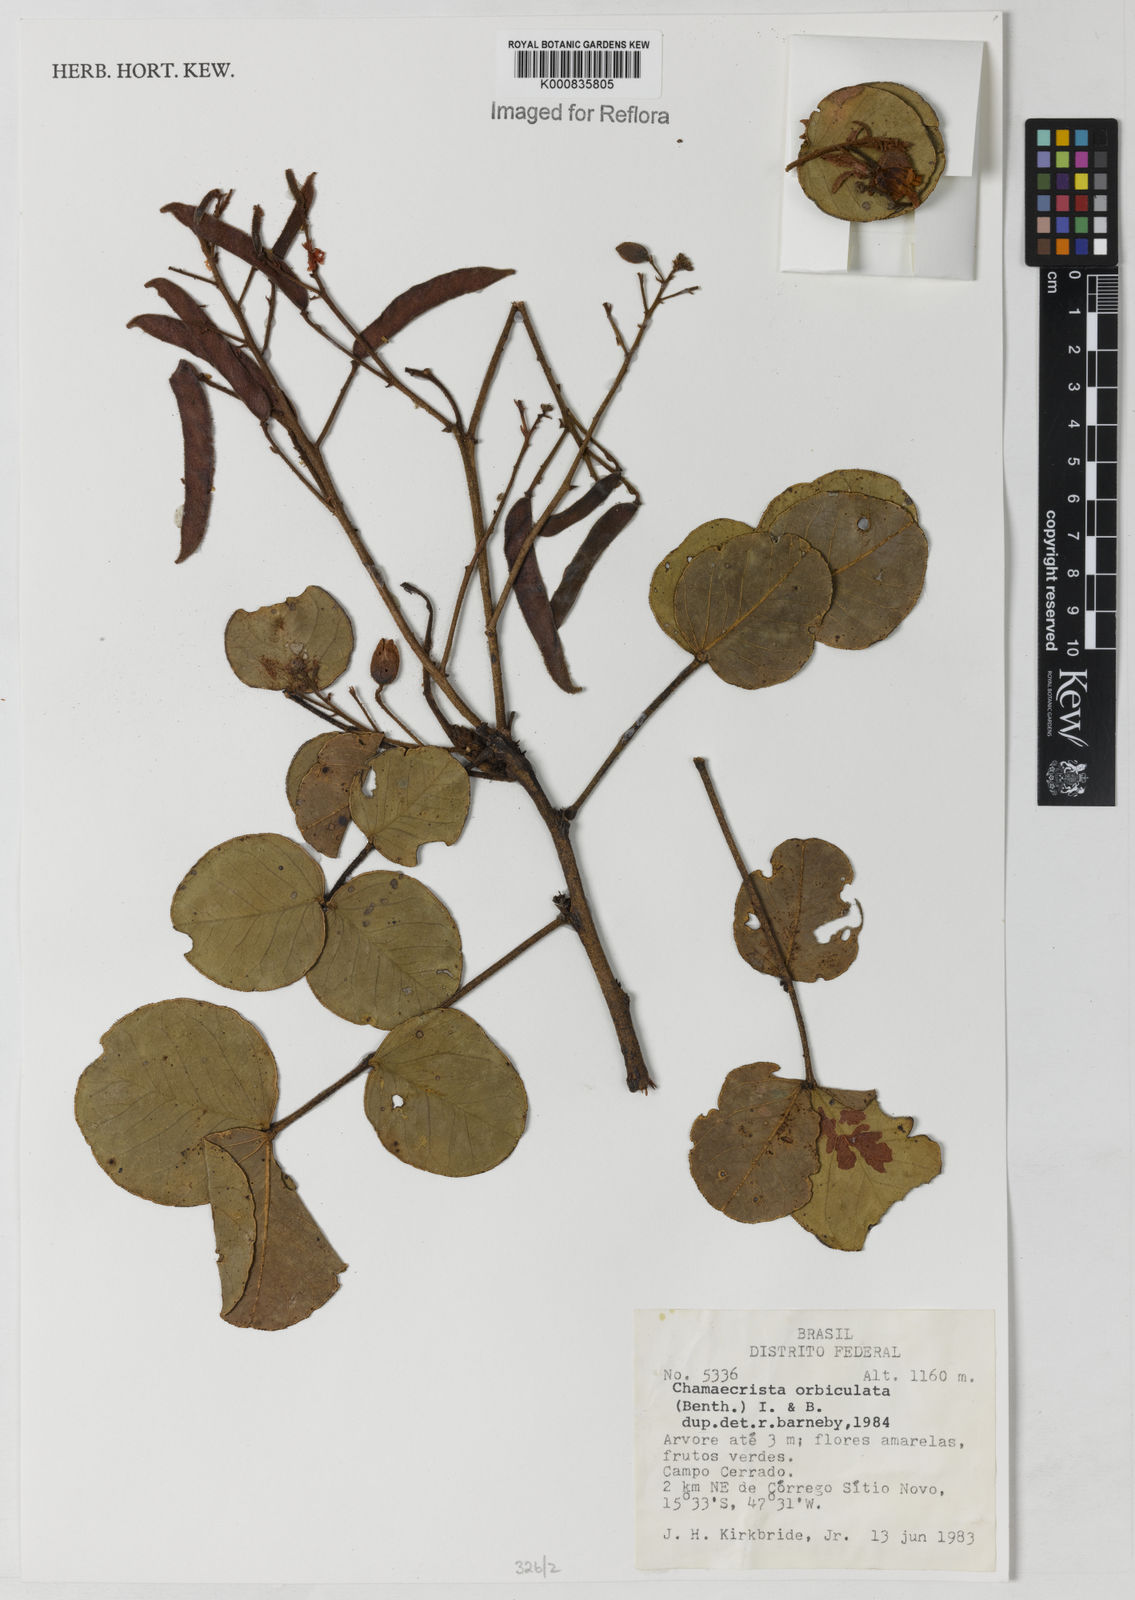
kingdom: Plantae
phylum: Tracheophyta
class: Magnoliopsida
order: Fabales
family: Fabaceae
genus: Chamaecrista
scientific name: Chamaecrista orbiculata
